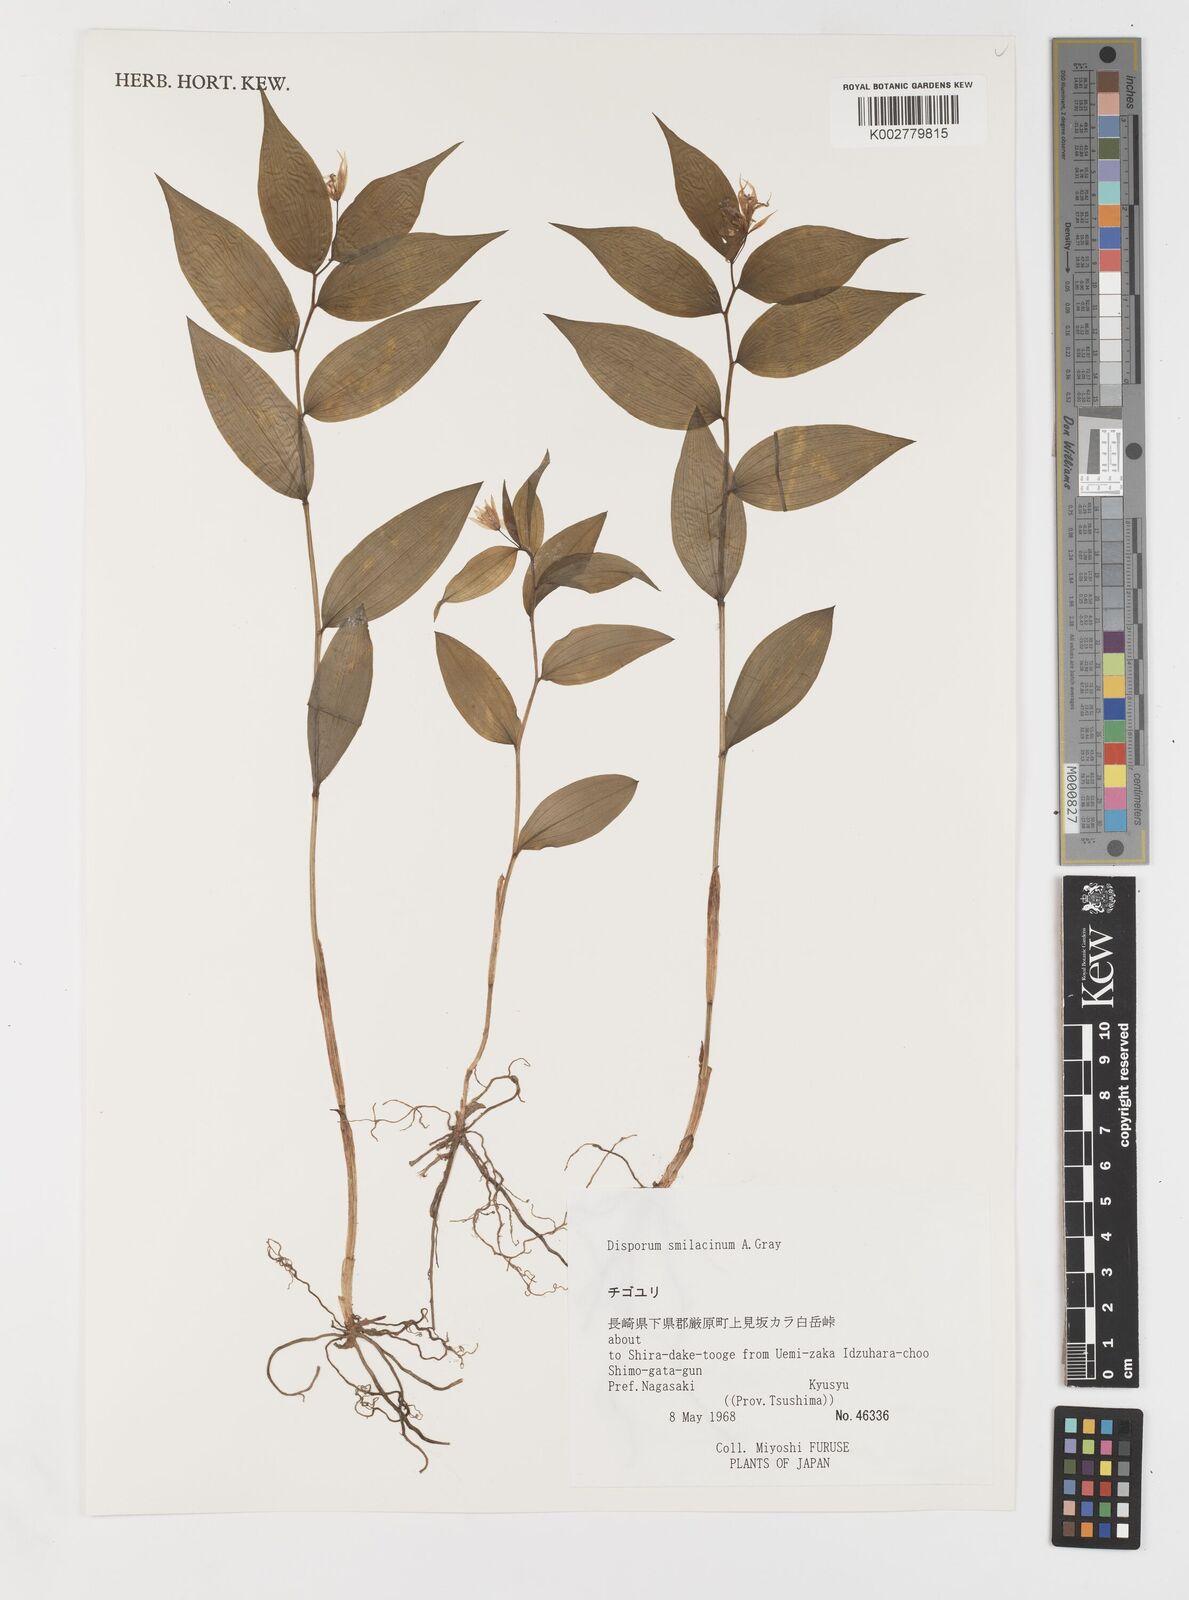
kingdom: Plantae
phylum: Tracheophyta
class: Liliopsida
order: Liliales
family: Colchicaceae
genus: Disporum
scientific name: Disporum smilacinum
